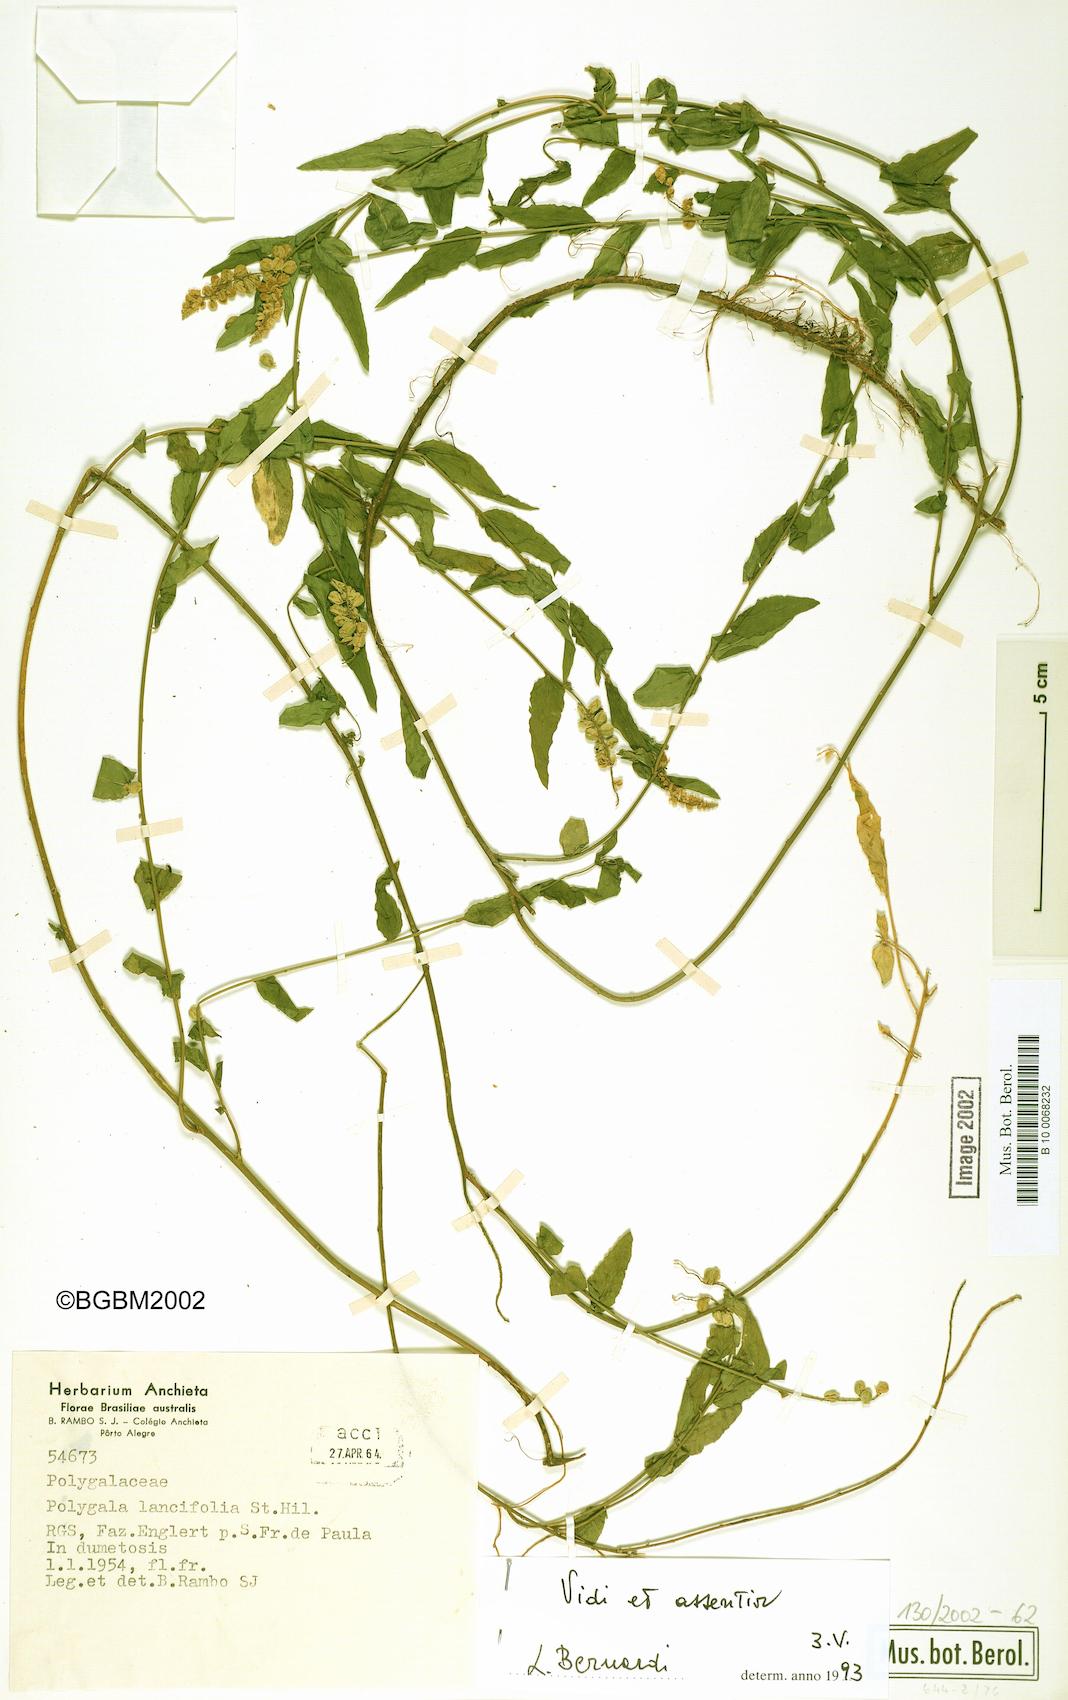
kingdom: Plantae
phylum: Tracheophyta
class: Magnoliopsida
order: Fabales
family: Polygalaceae
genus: Polygala
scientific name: Polygala lancifolia
